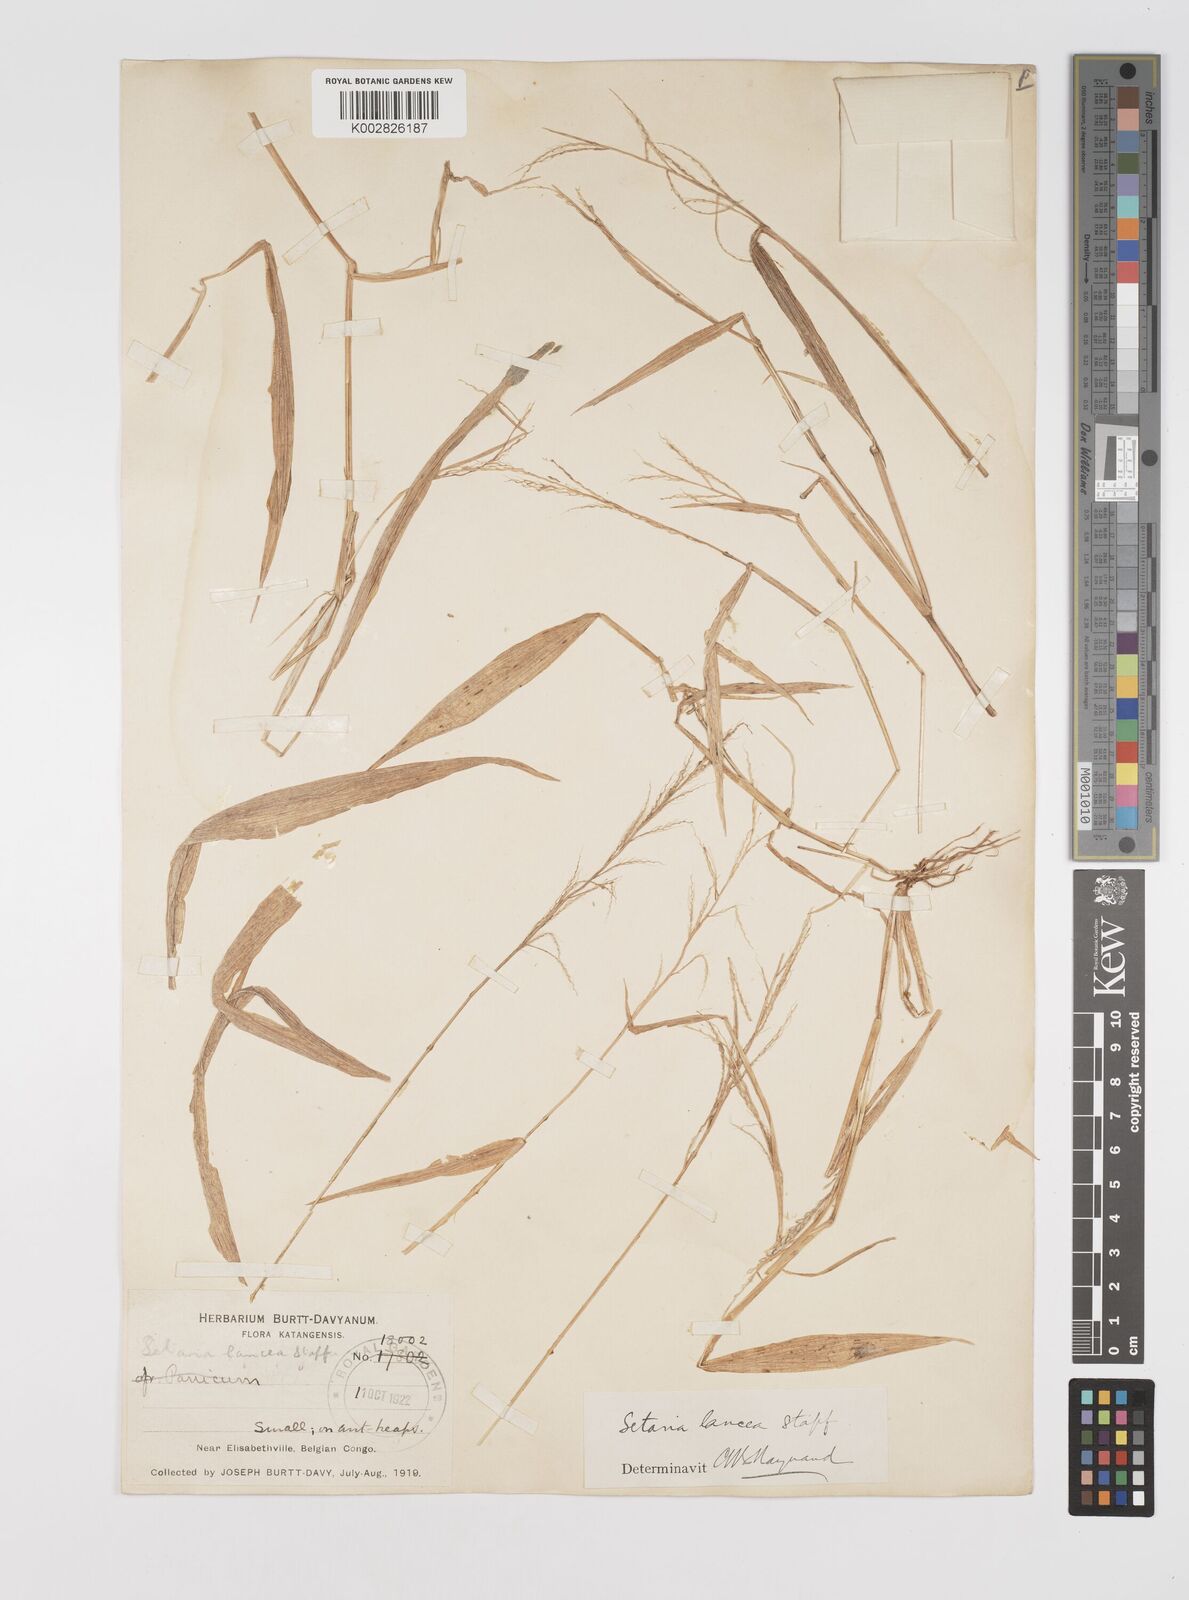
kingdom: Plantae
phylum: Tracheophyta
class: Liliopsida
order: Poales
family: Poaceae
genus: Setaria
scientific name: Setaria homonyma
